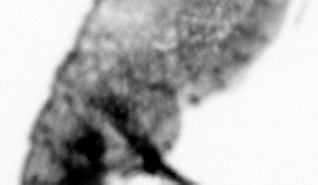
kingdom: Animalia
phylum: Chordata
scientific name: Chordata
